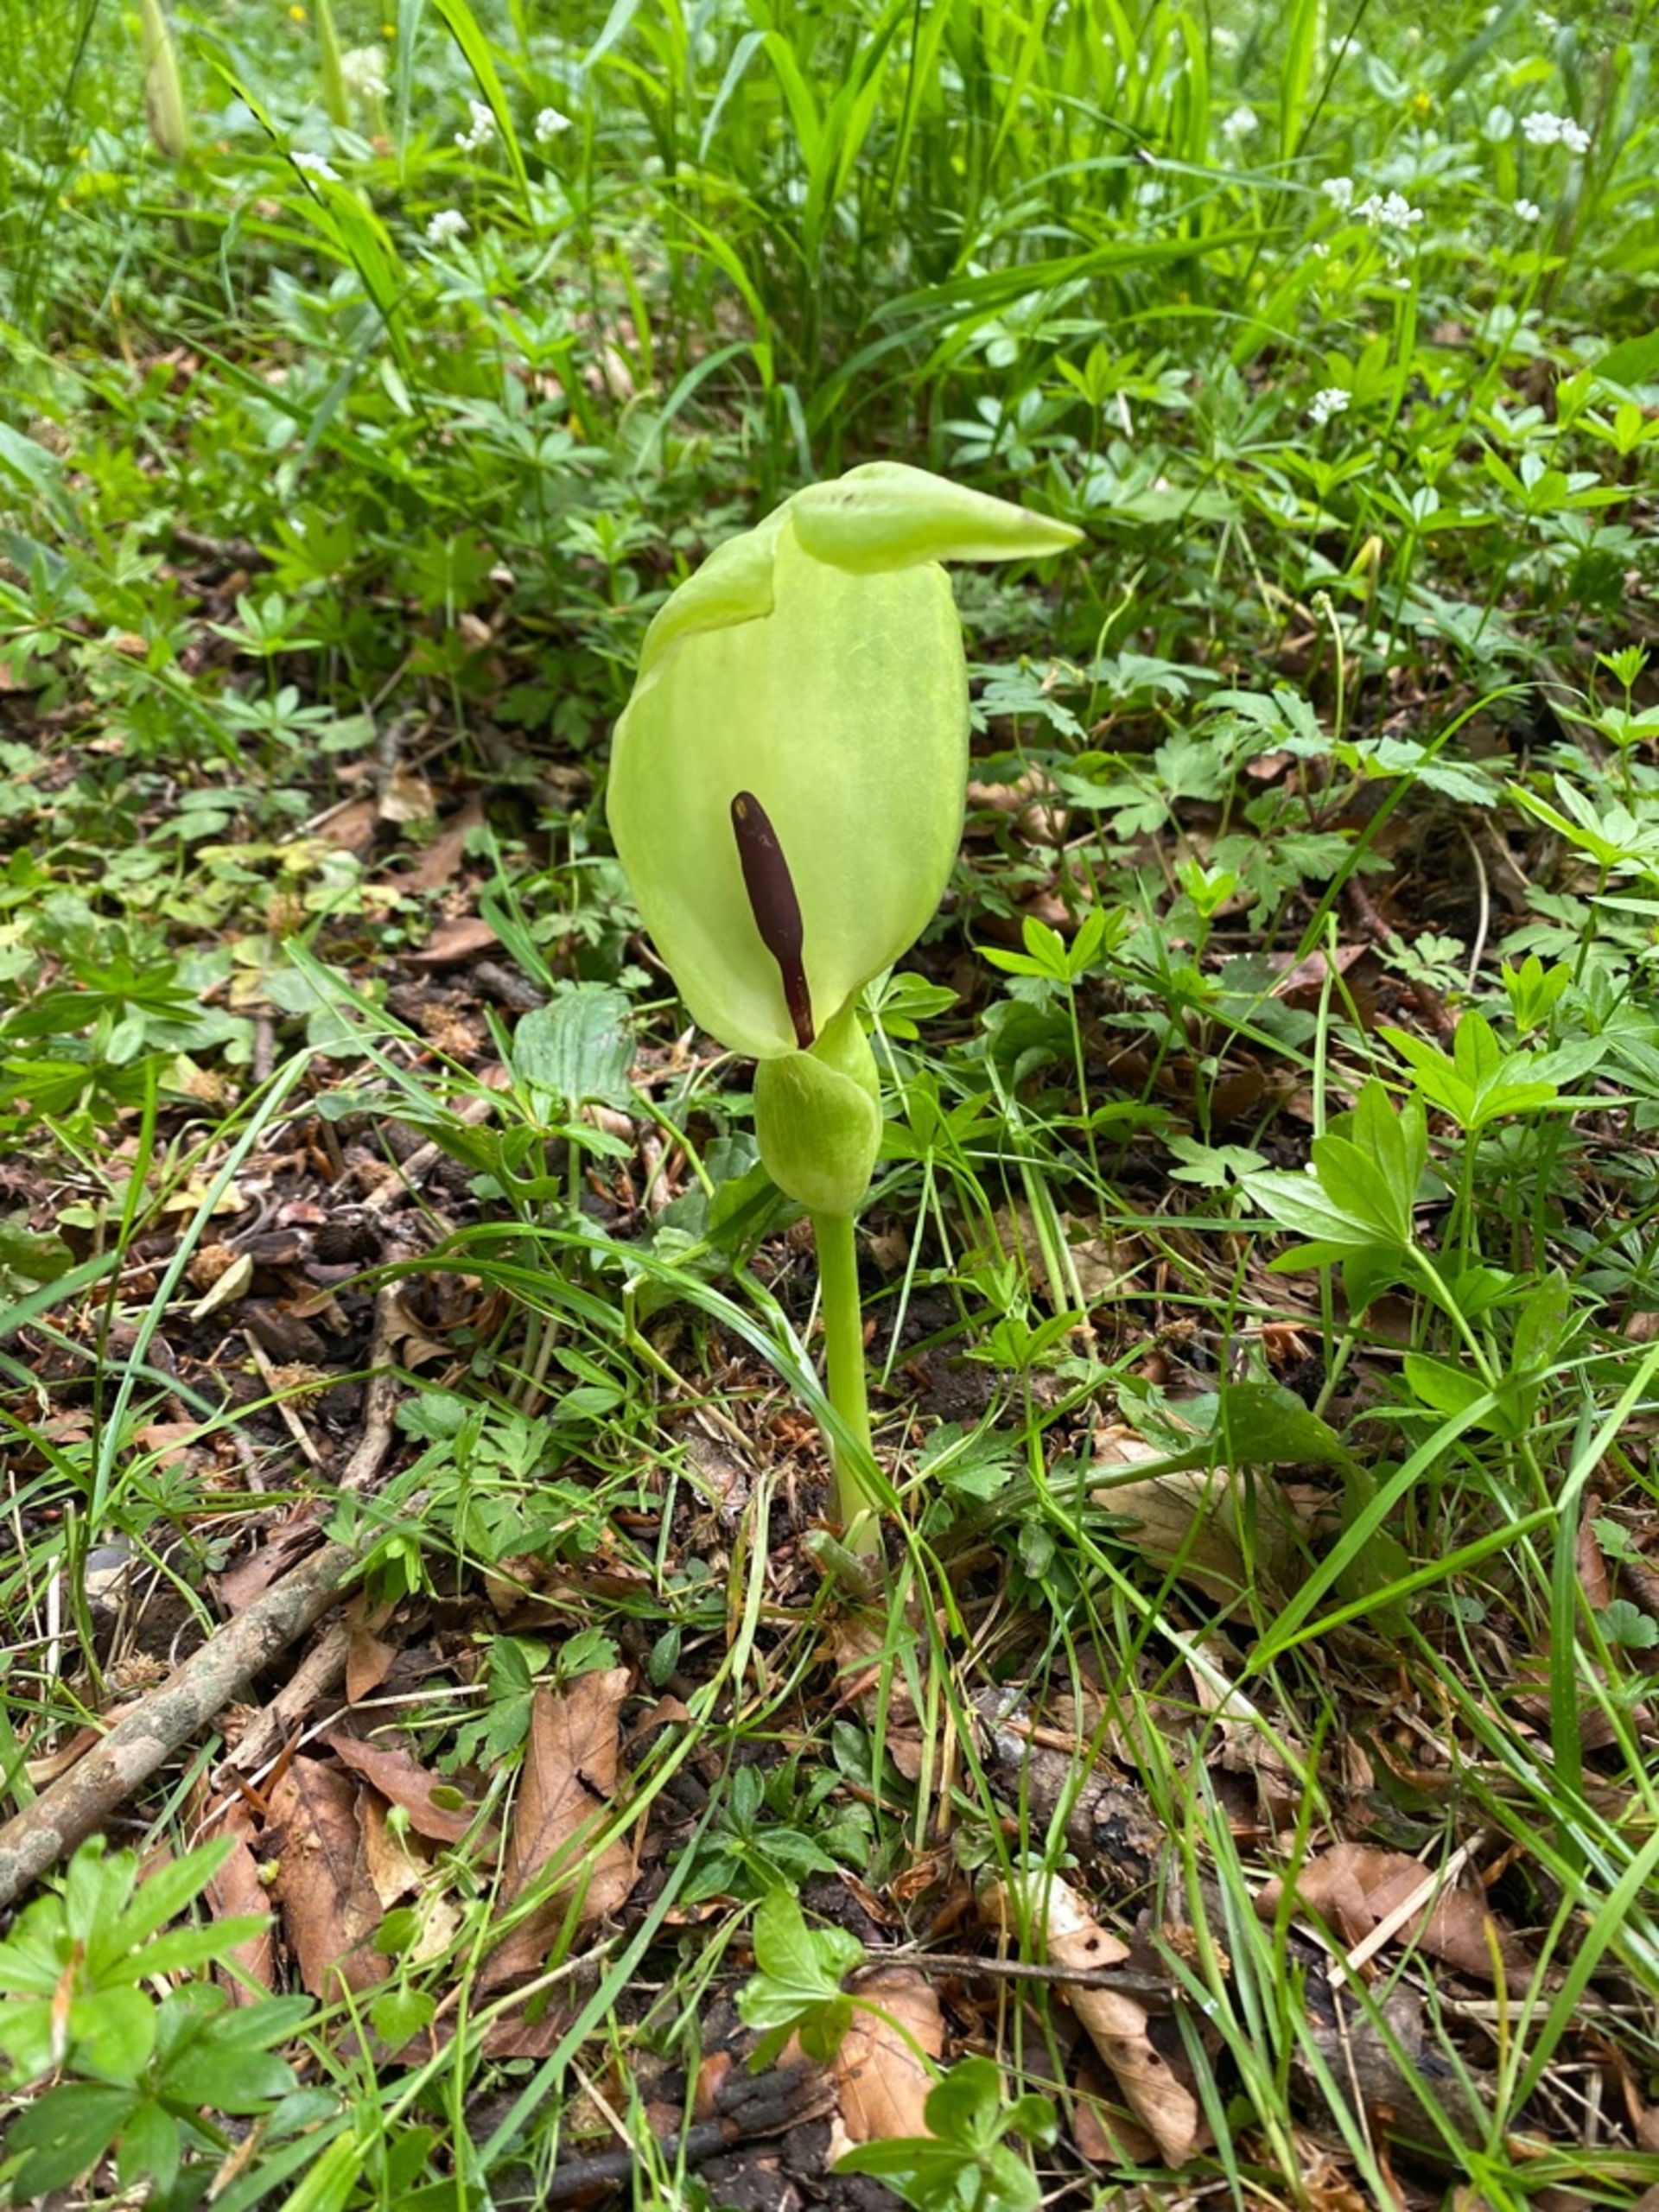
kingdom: Plantae
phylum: Tracheophyta
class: Liliopsida
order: Alismatales
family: Araceae
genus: Arum
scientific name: Arum maculatum
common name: Plettet arum
